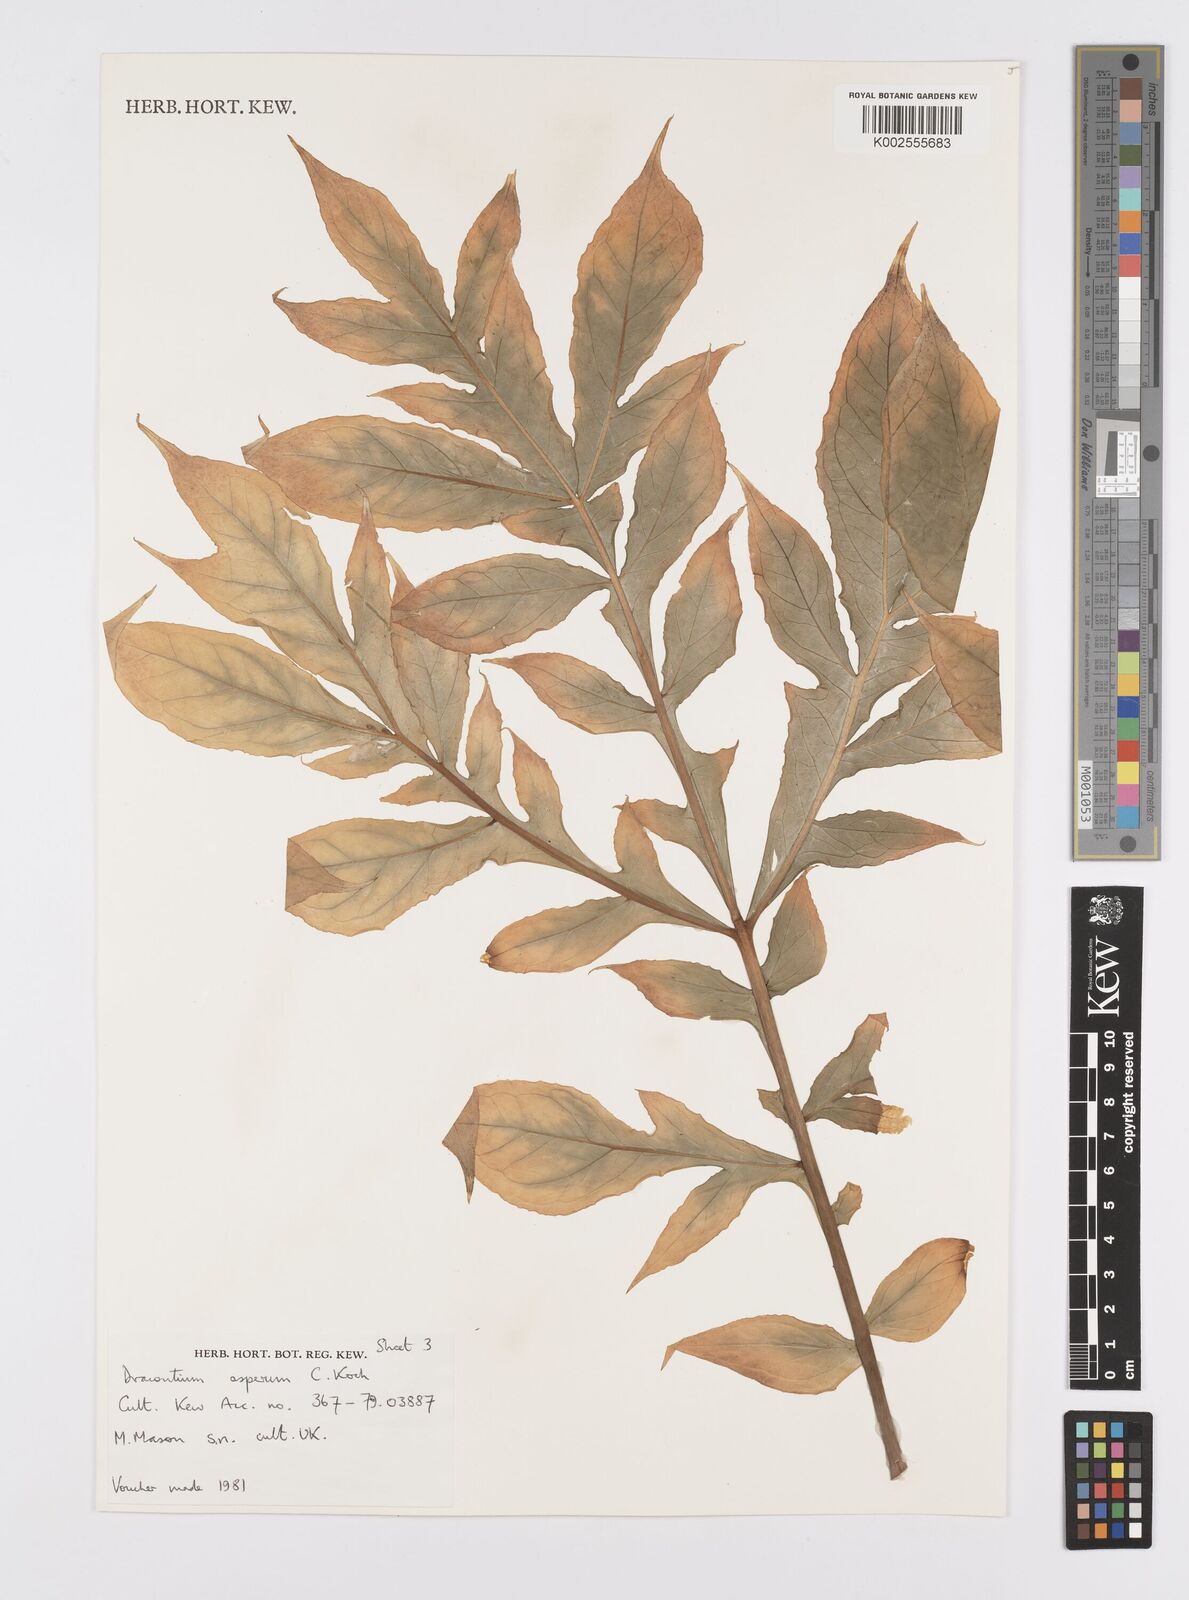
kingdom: Plantae
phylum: Tracheophyta
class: Liliopsida
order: Alismatales
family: Araceae
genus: Dracontium
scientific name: Dracontium asperum
